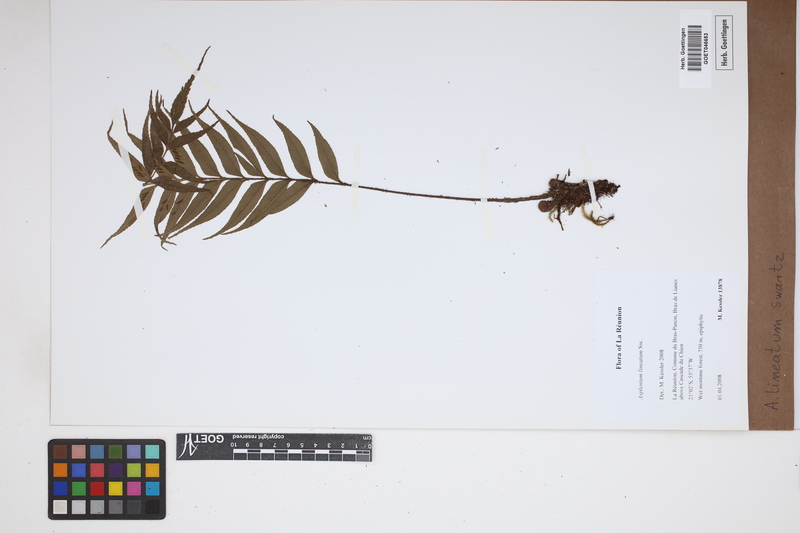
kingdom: Plantae
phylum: Tracheophyta
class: Polypodiopsida
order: Polypodiales
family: Aspleniaceae
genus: Asplenium
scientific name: Asplenium daucifolium
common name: Mauritius spleenwort
